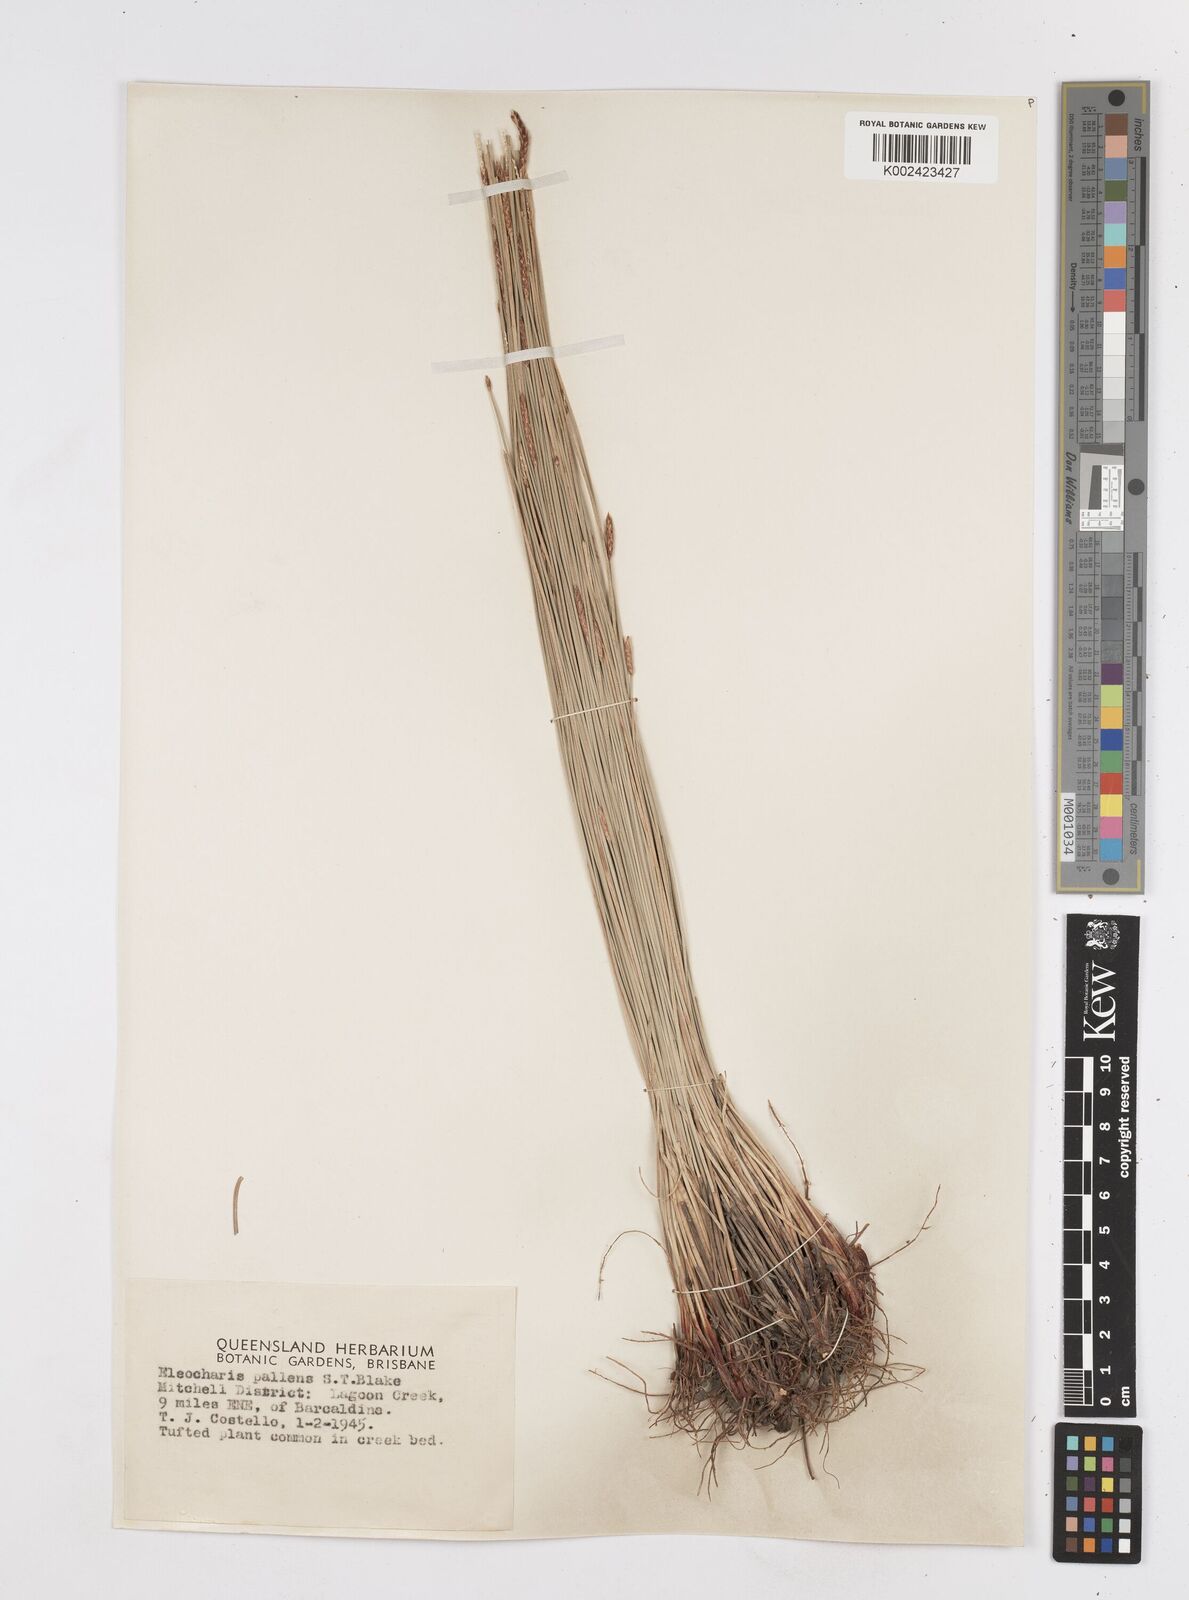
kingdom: Plantae
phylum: Tracheophyta
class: Liliopsida
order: Poales
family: Cyperaceae
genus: Eleocharis
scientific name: Eleocharis acuta
